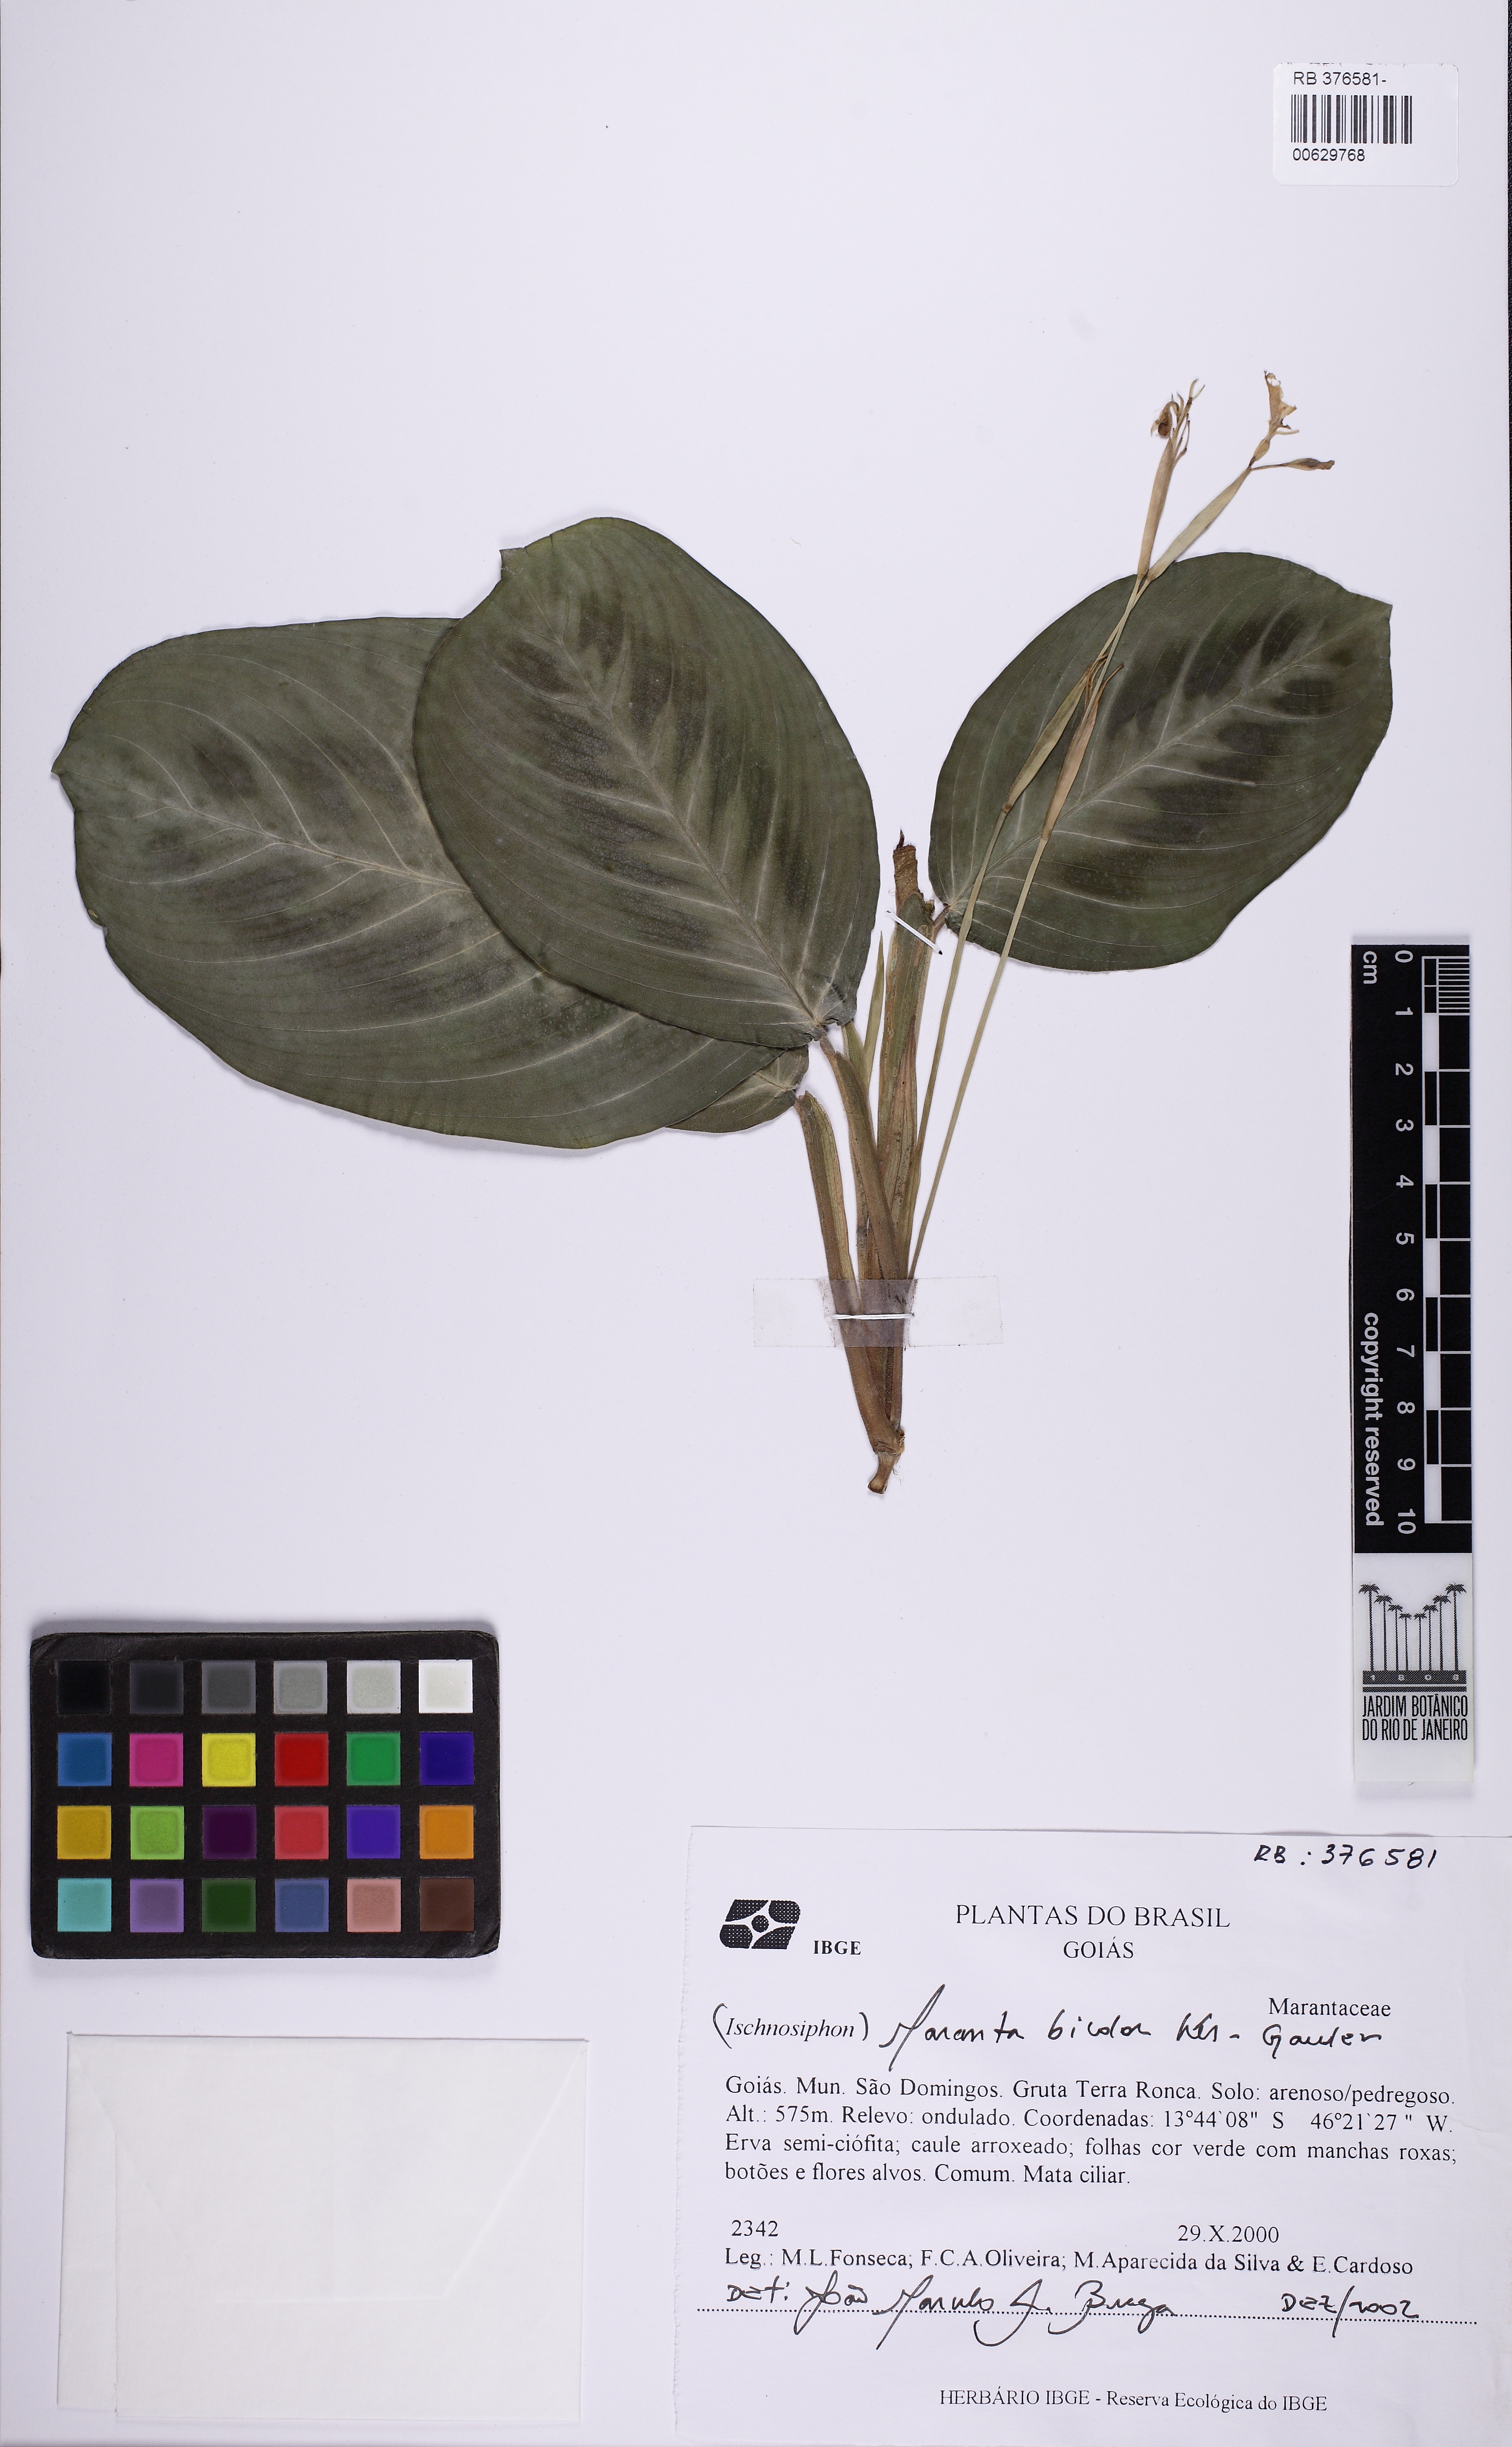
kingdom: Plantae
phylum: Tracheophyta
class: Liliopsida
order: Zingiberales
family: Marantaceae
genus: Maranta
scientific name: Maranta leuconeura
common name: Ten-commandments
